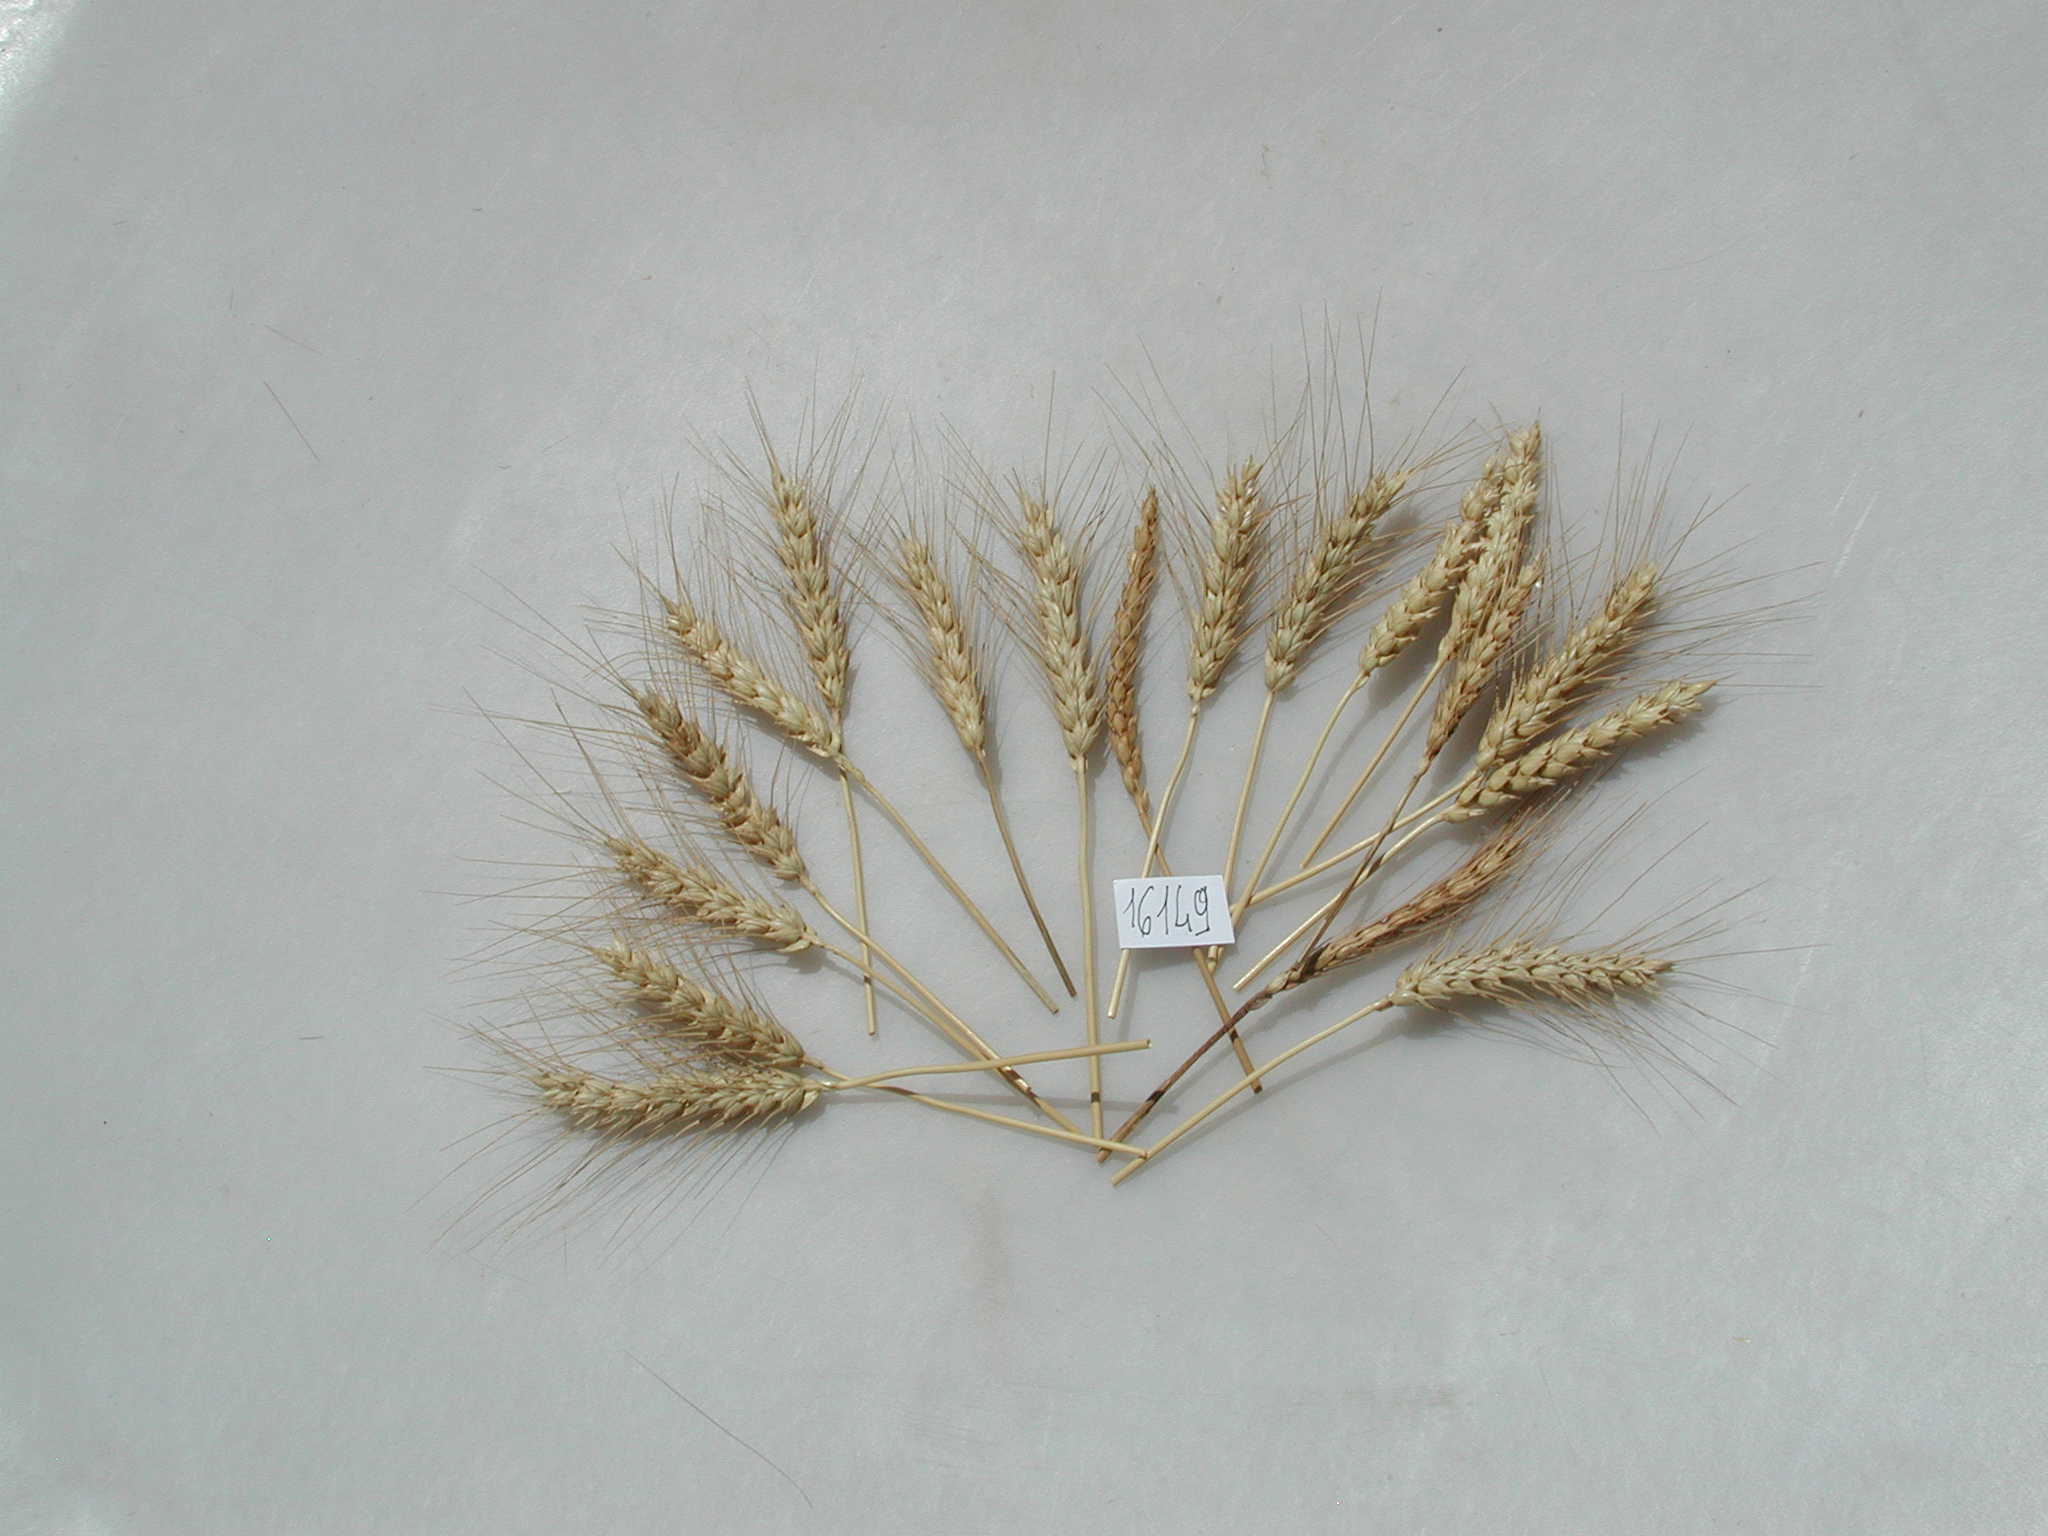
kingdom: Plantae
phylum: Tracheophyta
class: Liliopsida
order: Poales
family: Poaceae
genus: Triticum
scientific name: Triticum
